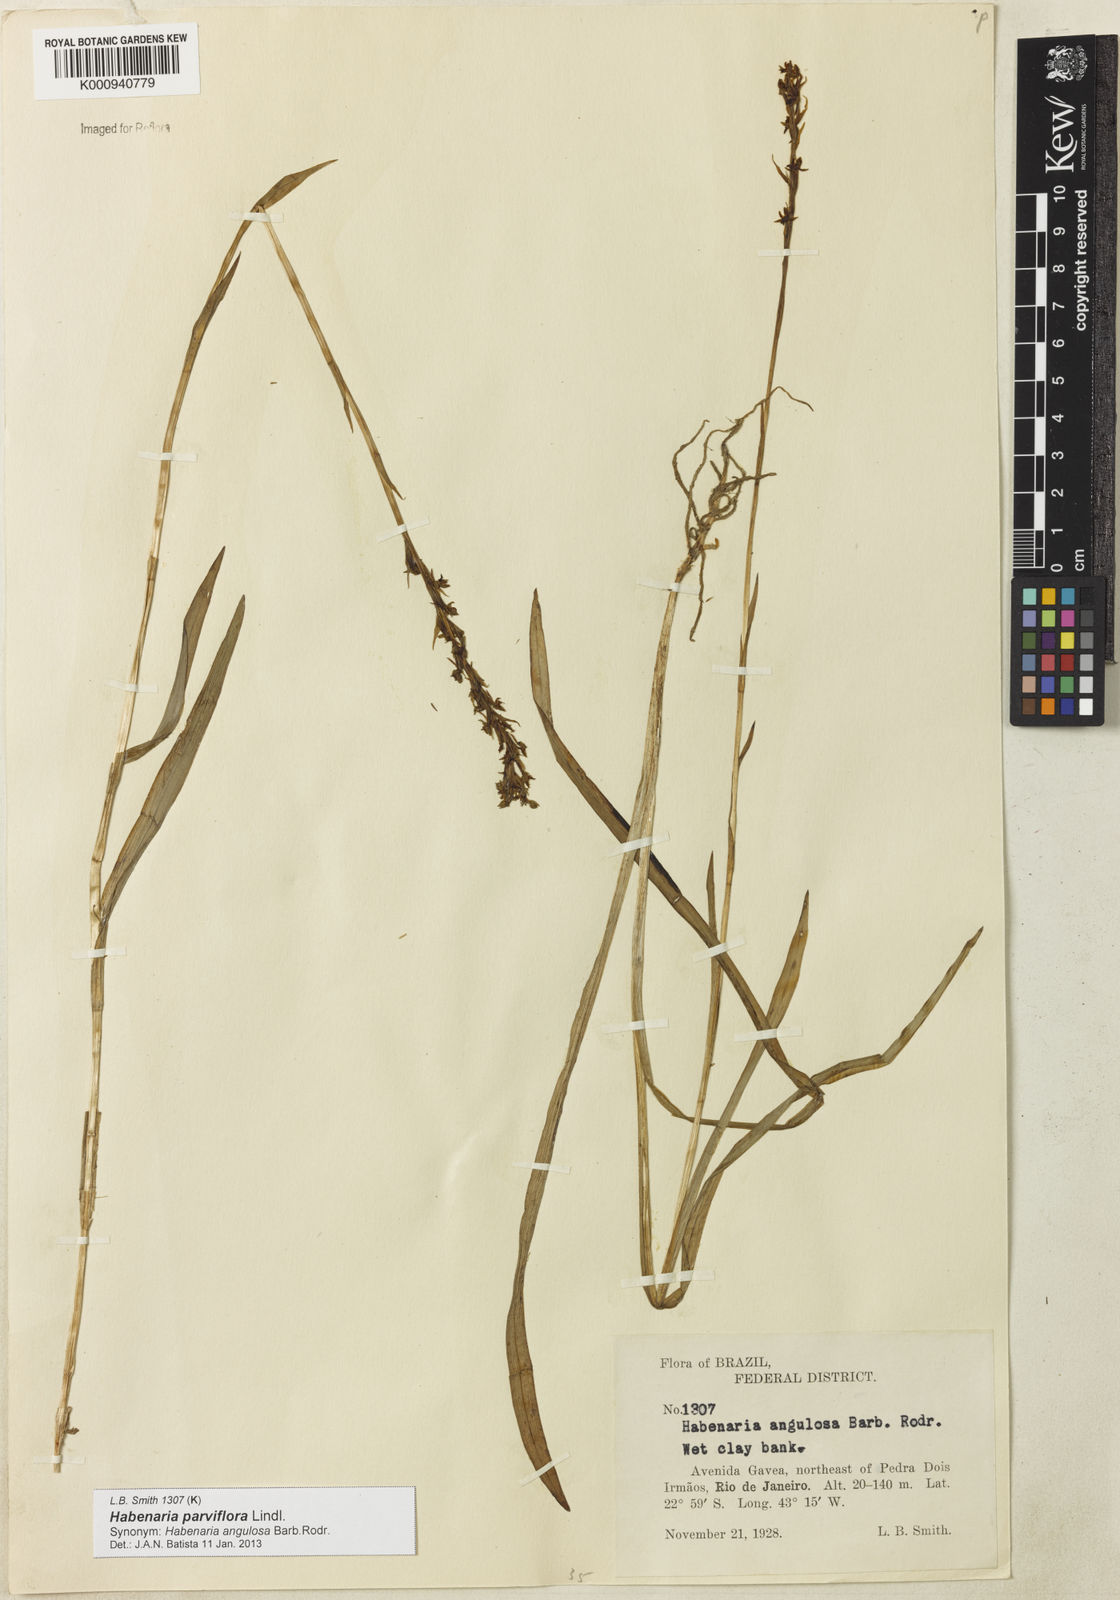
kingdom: Plantae
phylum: Tracheophyta
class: Liliopsida
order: Asparagales
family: Orchidaceae
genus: Habenaria
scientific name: Habenaria parviflora
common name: Small flowered habenaria
